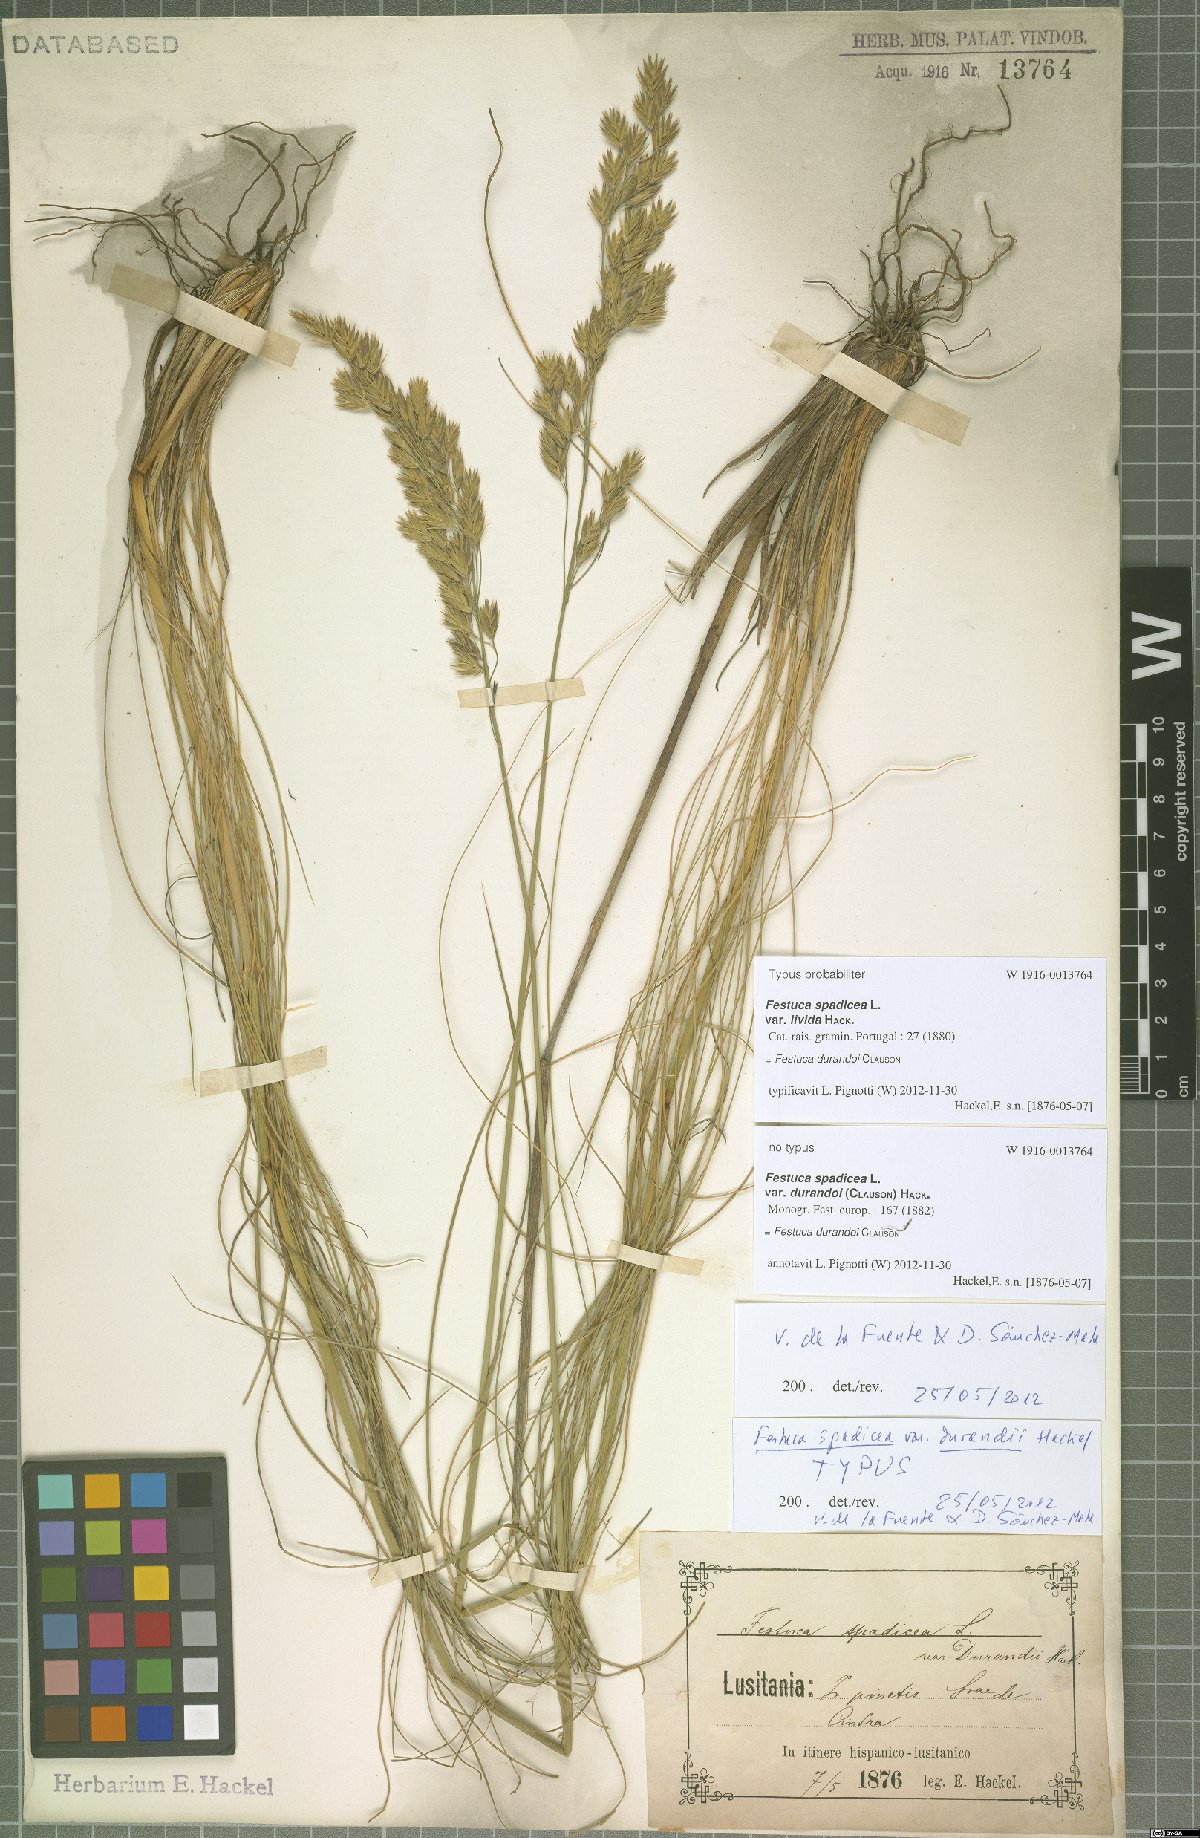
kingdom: Plantae
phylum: Tracheophyta
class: Liliopsida
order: Poales
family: Poaceae
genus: Patzkea
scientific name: Patzkea durandoi
